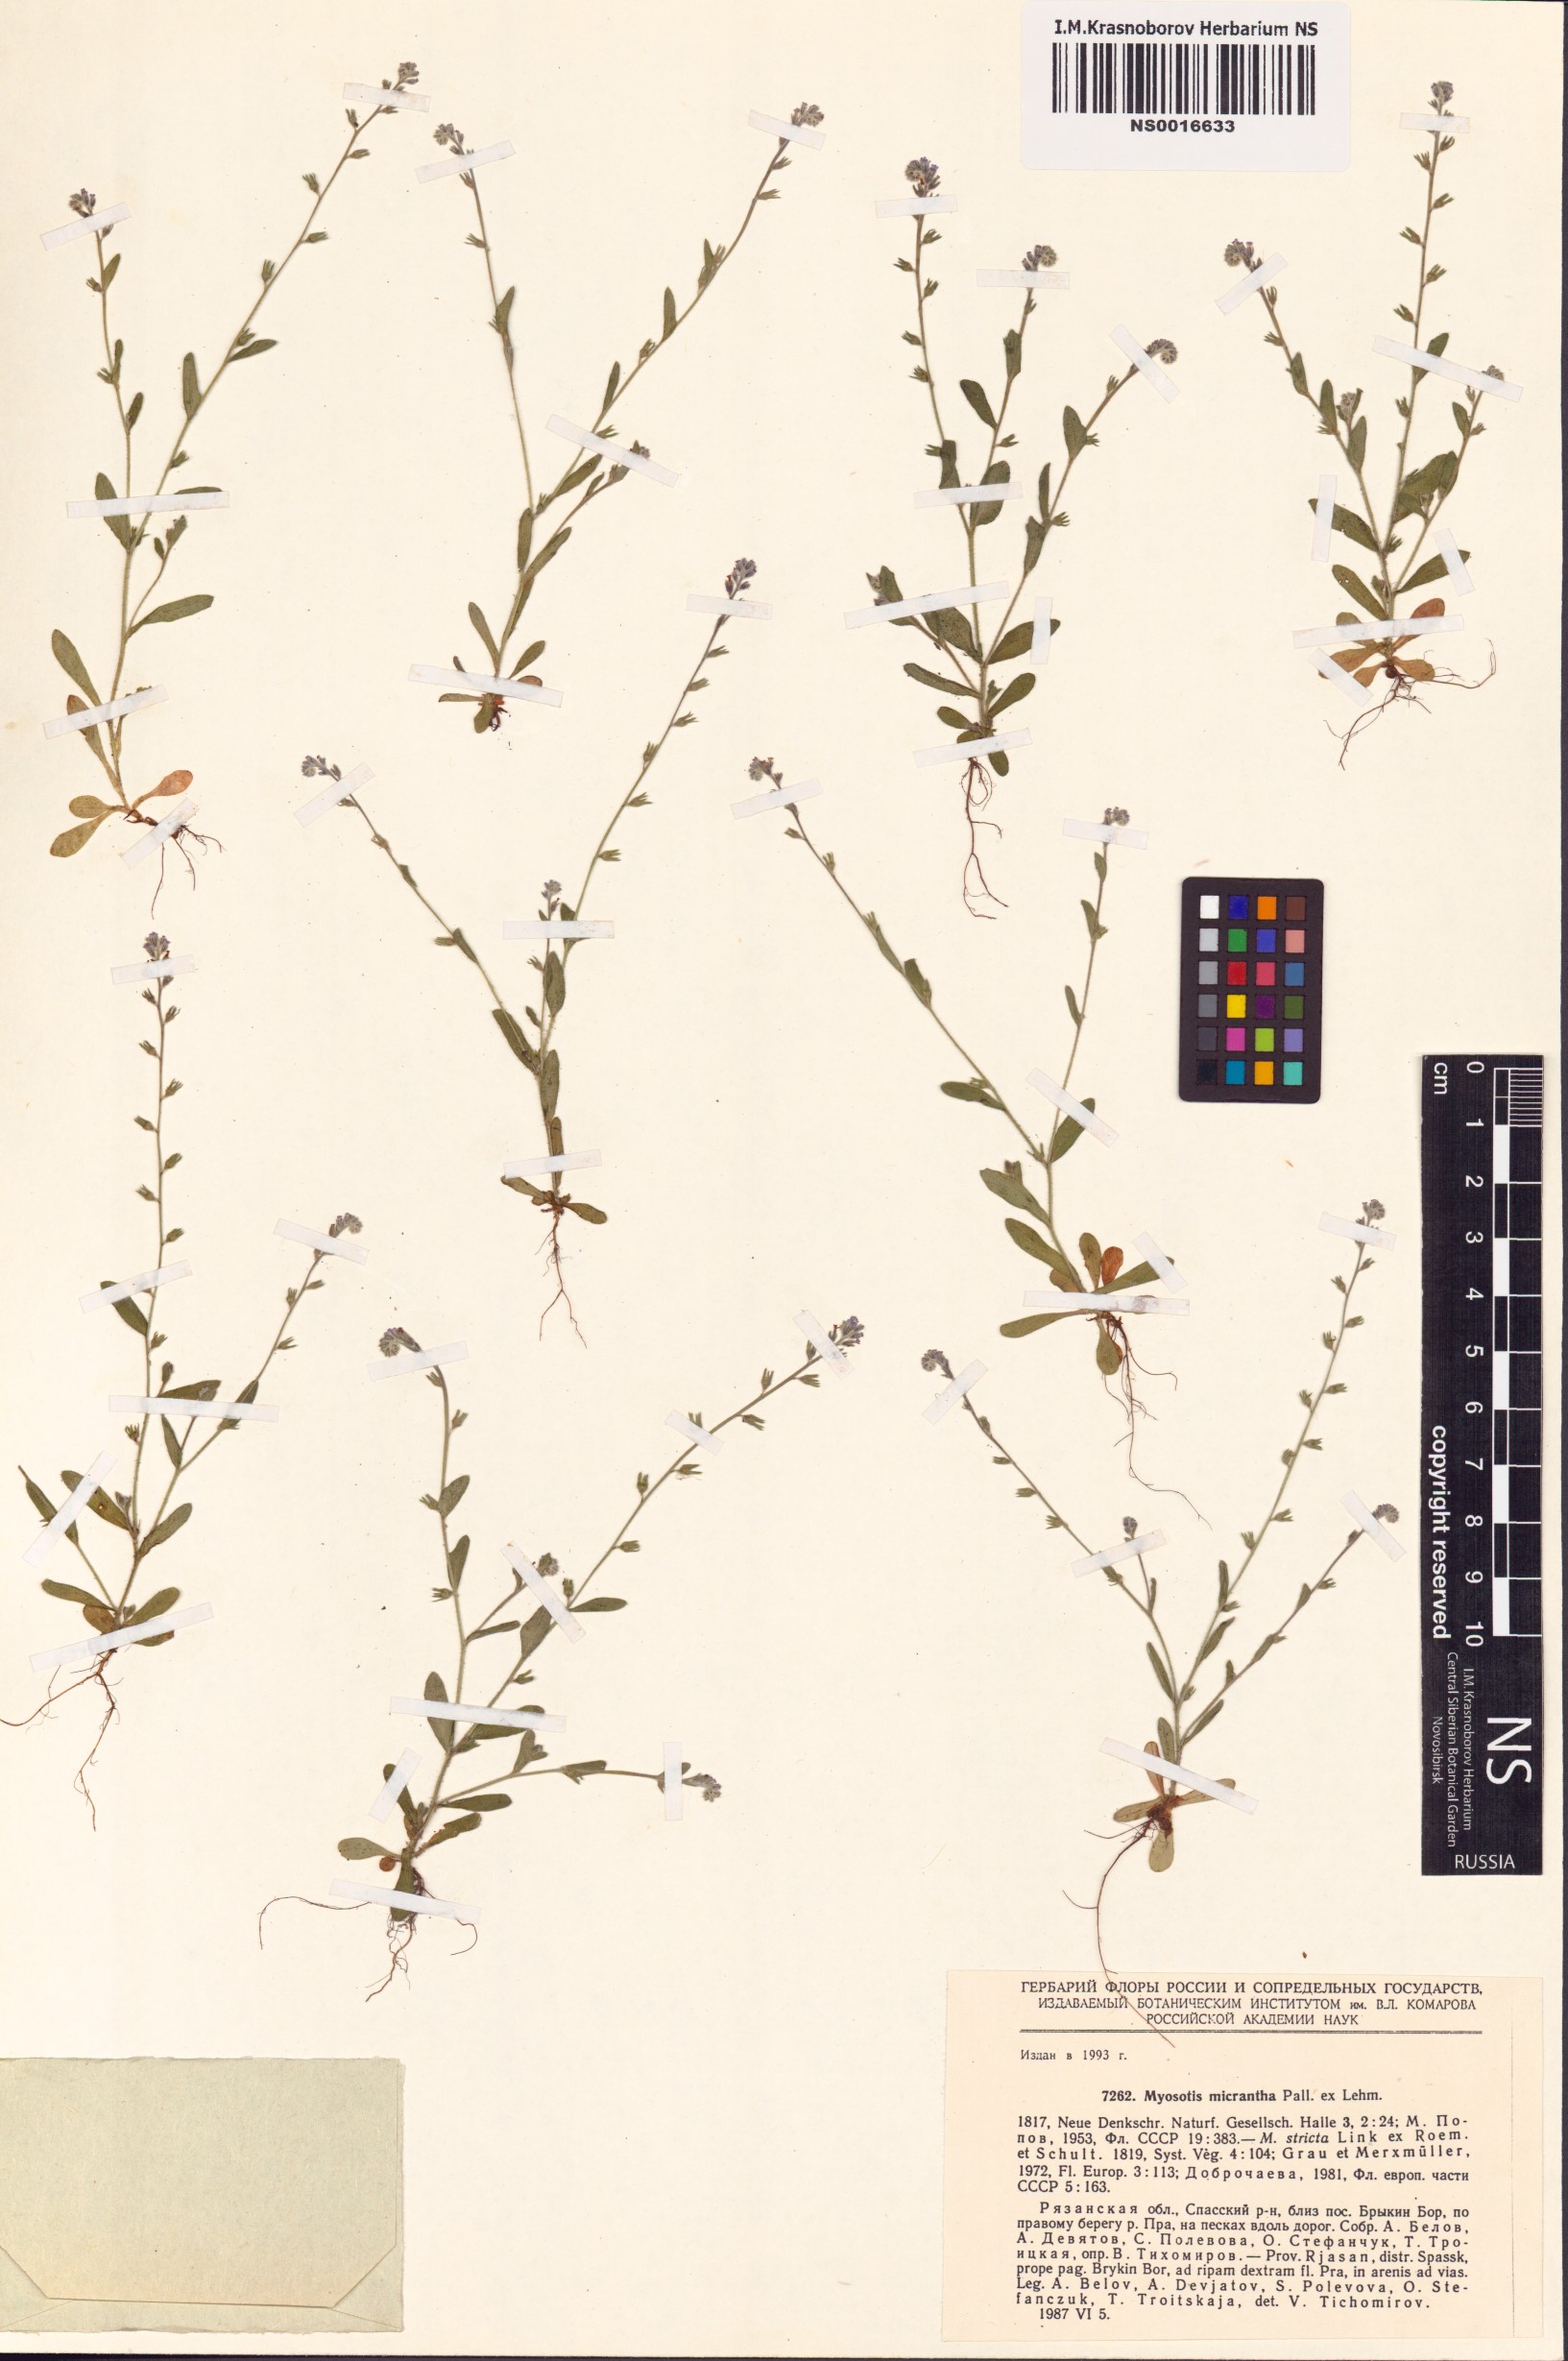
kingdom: Plantae
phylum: Tracheophyta
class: Magnoliopsida
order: Boraginales
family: Boraginaceae
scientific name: Boraginaceae
